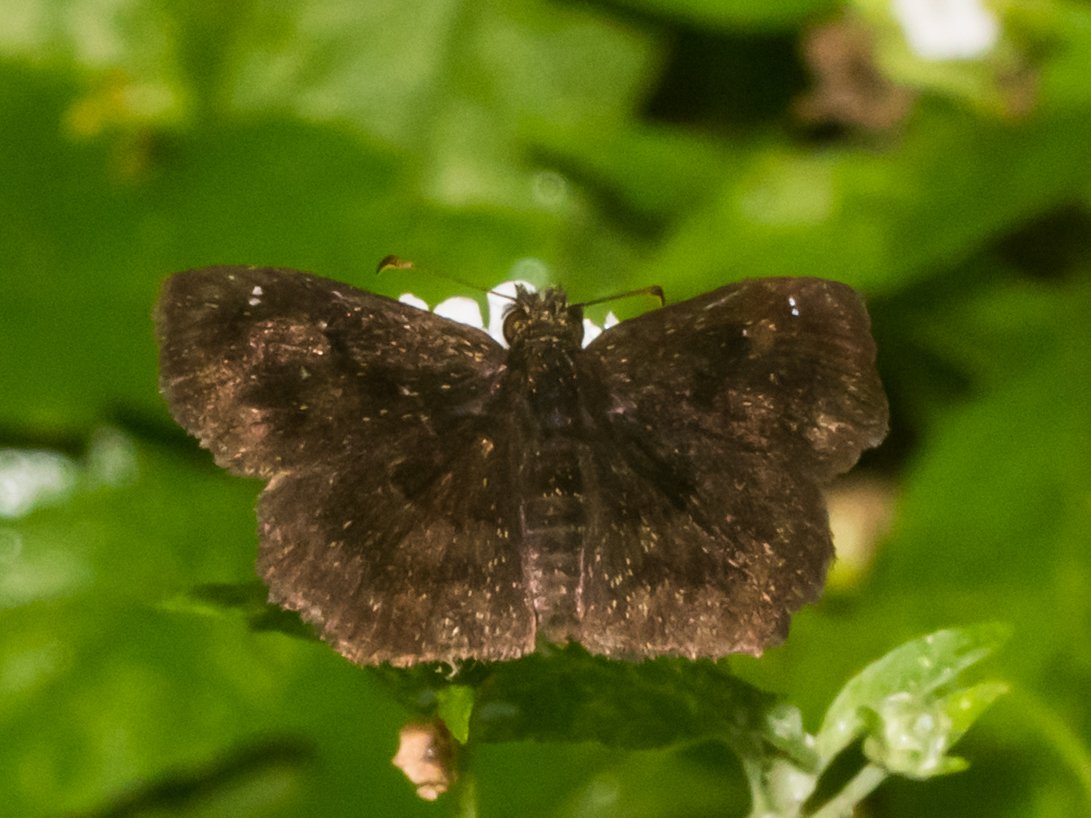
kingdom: Animalia
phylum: Arthropoda
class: Insecta
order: Lepidoptera
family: Hesperiidae
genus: Staphylus
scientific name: Staphylus mazans
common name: Mazans Scallopwing
